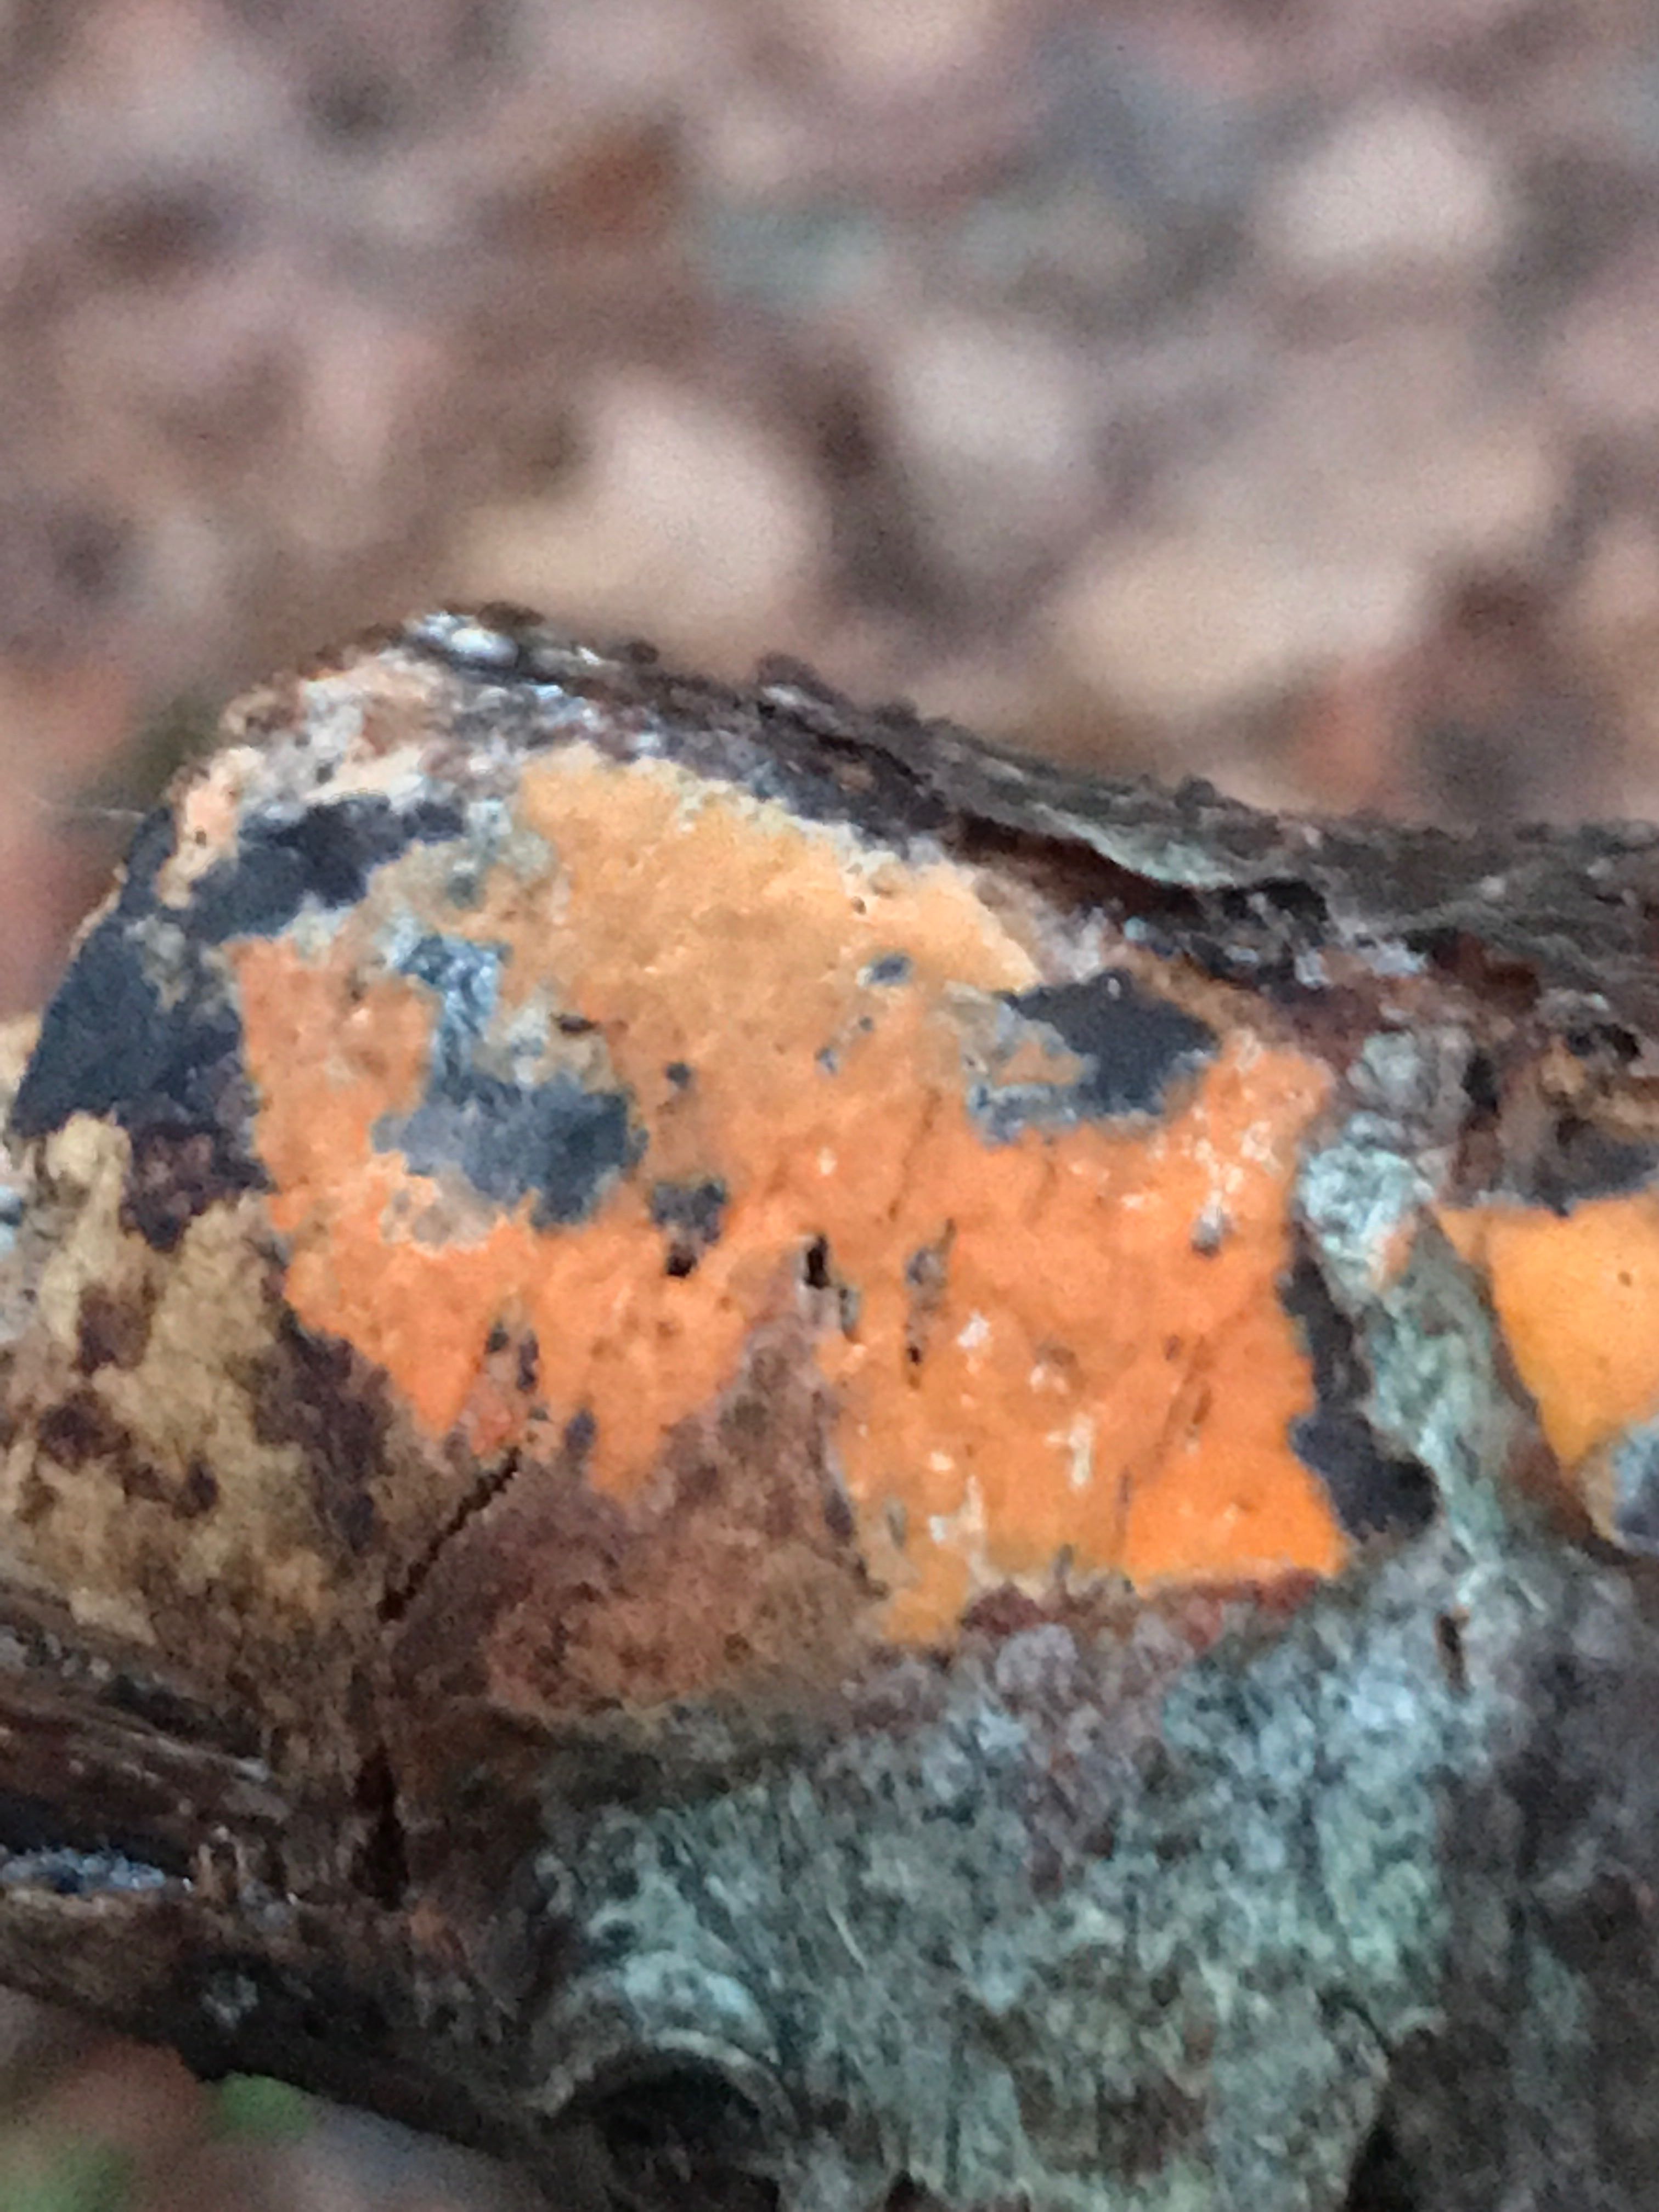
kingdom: Fungi
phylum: Basidiomycota
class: Agaricomycetes
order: Russulales
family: Peniophoraceae
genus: Peniophora
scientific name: Peniophora incarnata
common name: laksefarvet voksskind
